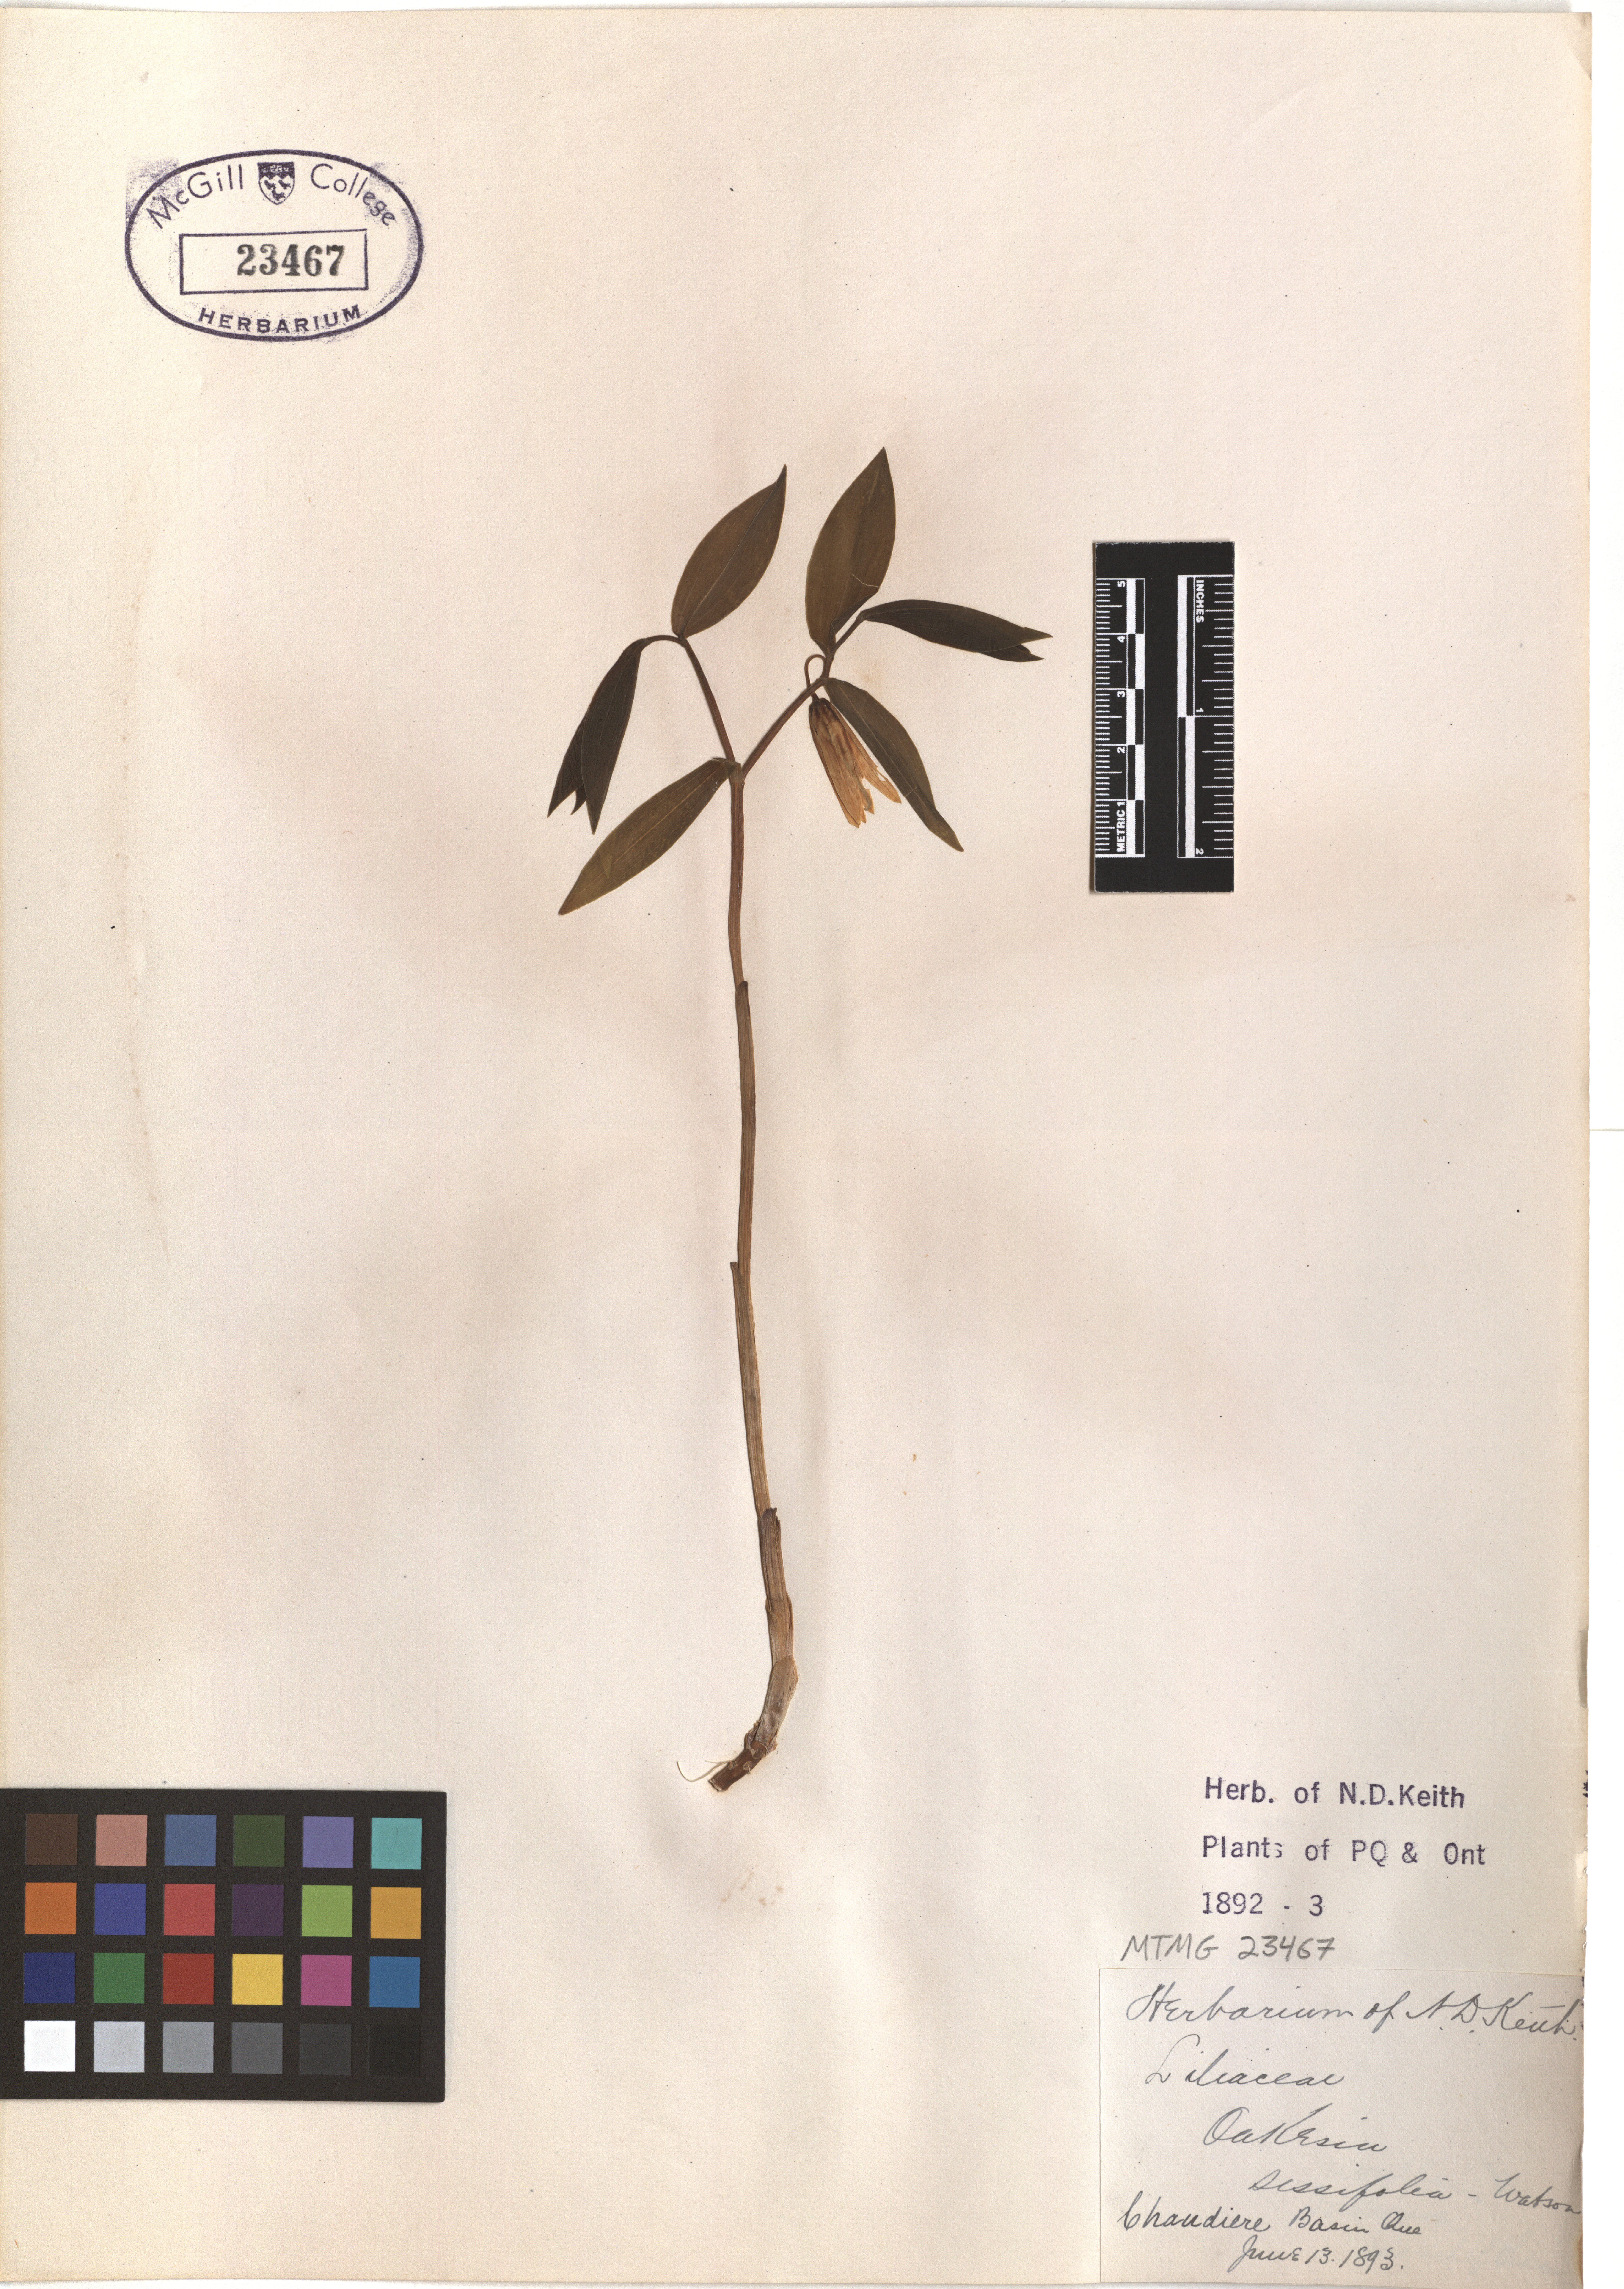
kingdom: Plantae
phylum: Tracheophyta
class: Liliopsida
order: Liliales
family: Colchicaceae
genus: Uvularia
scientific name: Uvularia sessilifolia
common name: Straw-lily
